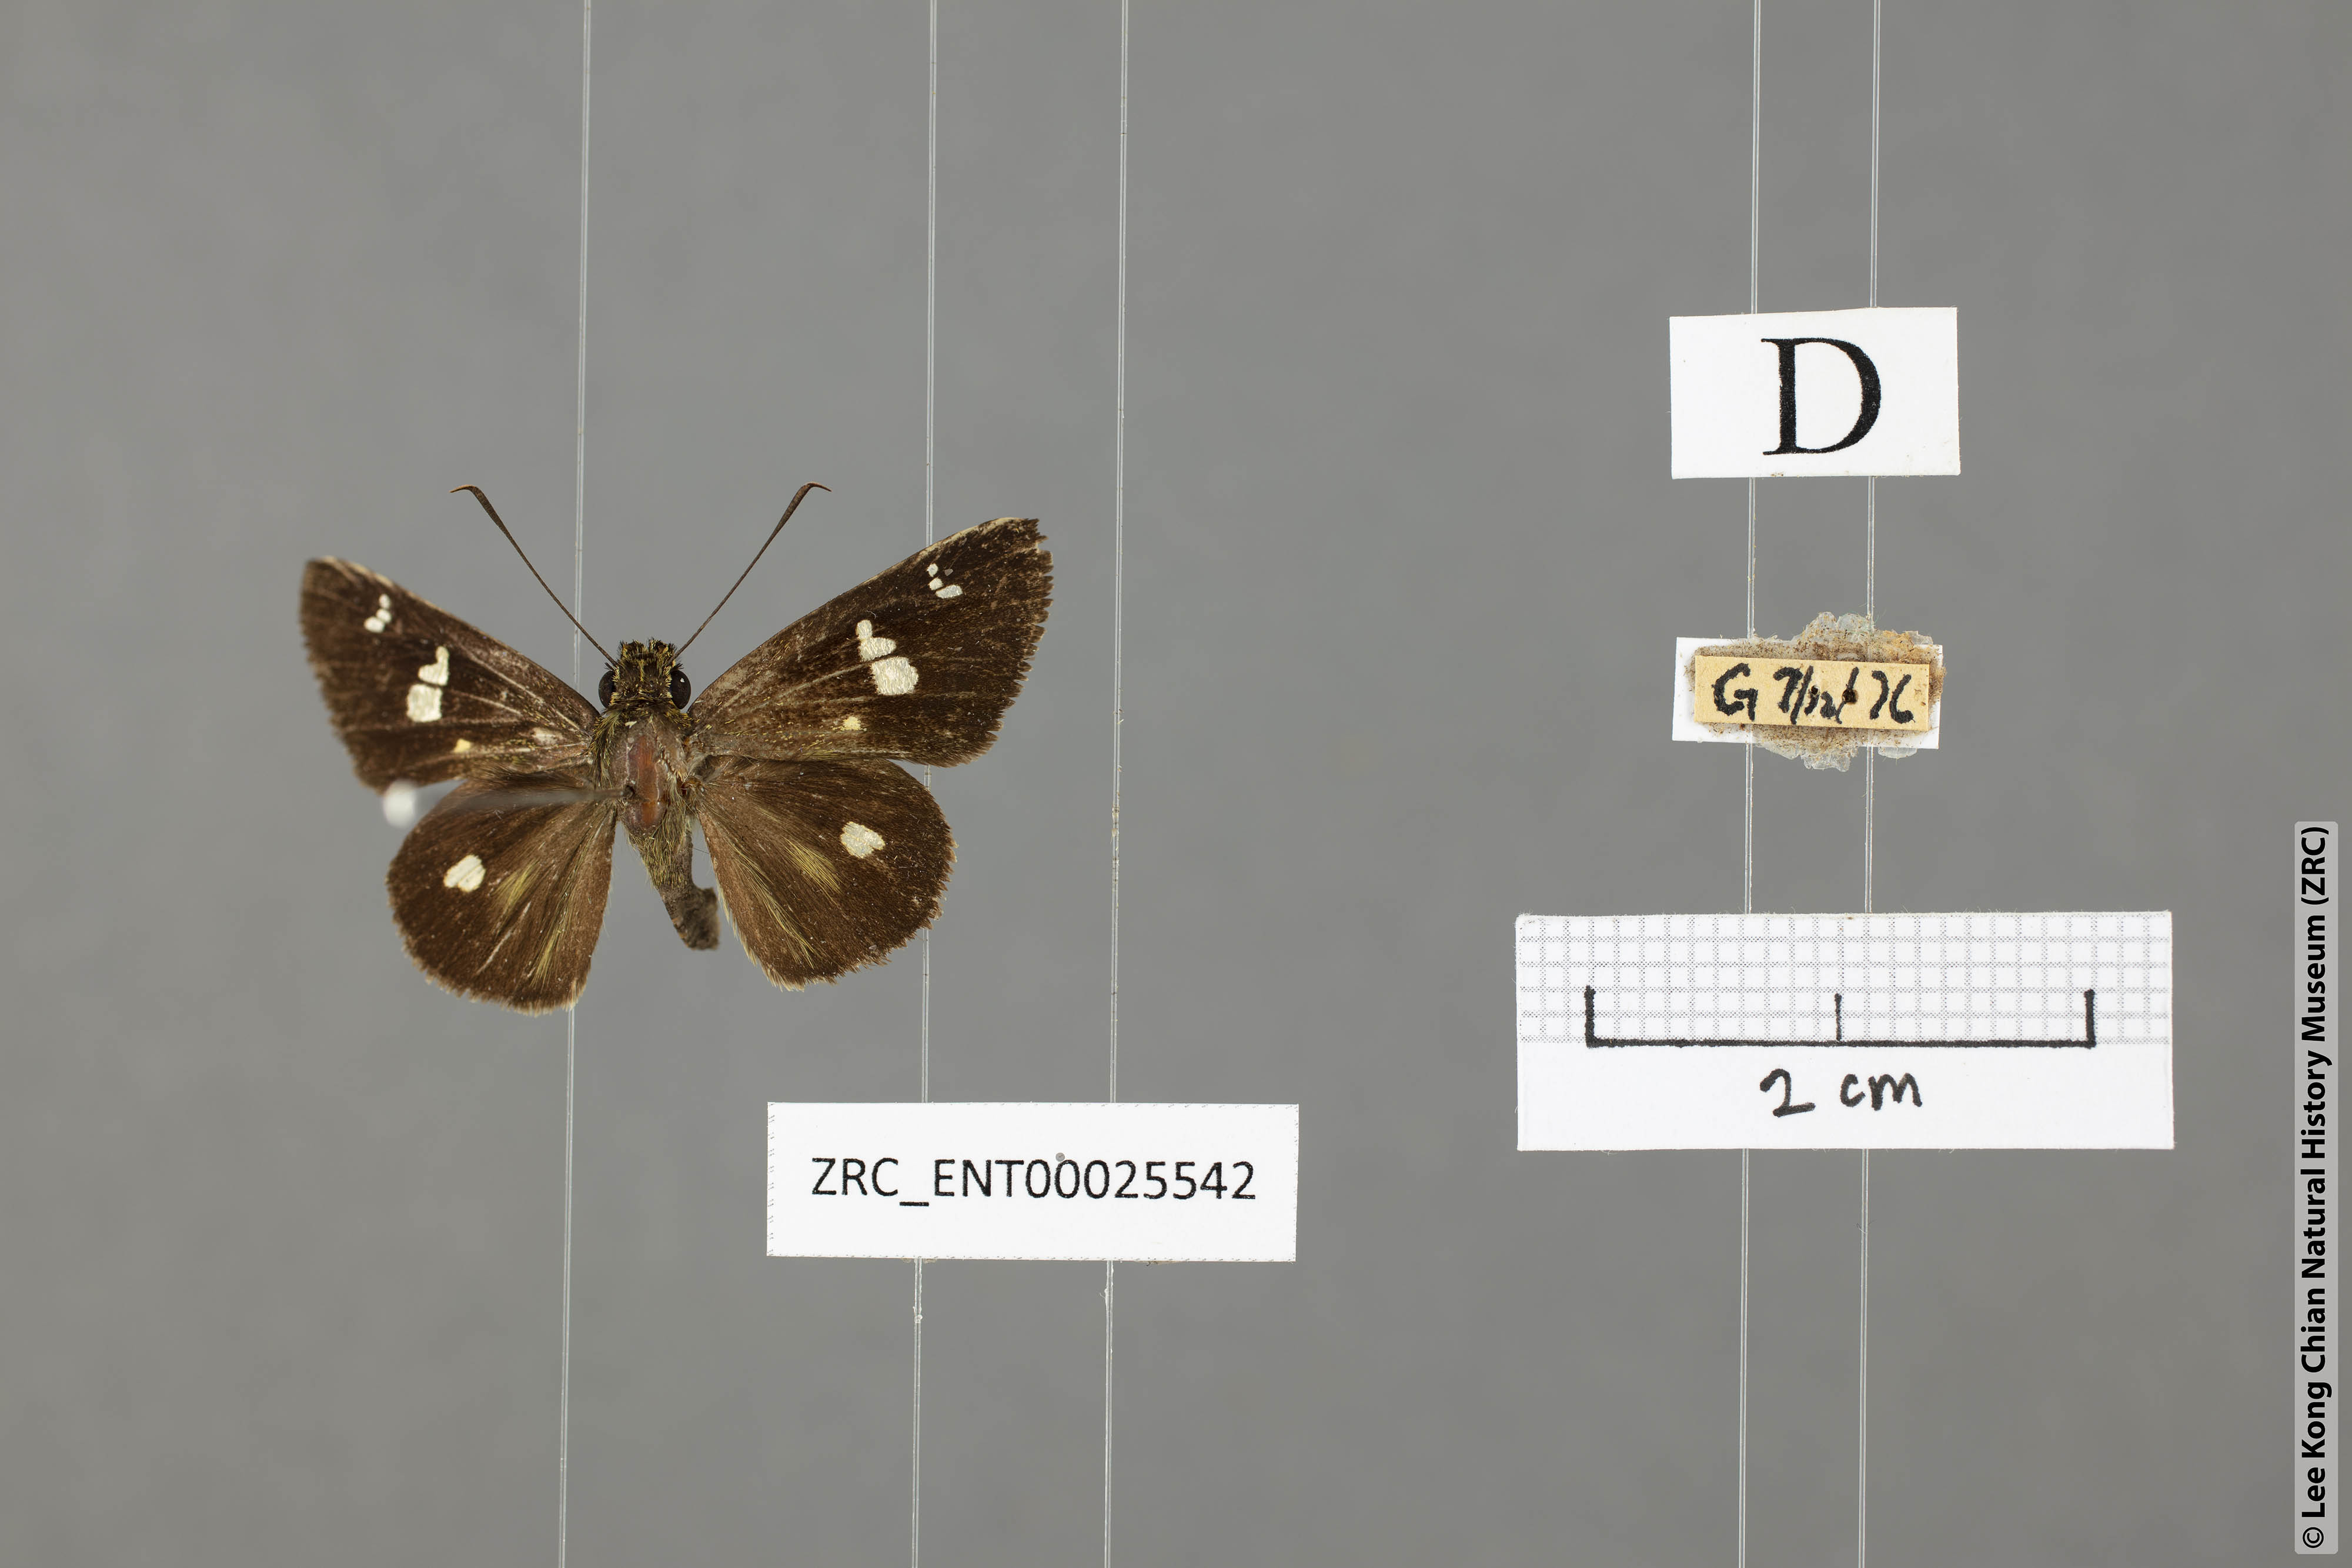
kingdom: Animalia
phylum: Arthropoda
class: Insecta
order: Lepidoptera
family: Hesperiidae
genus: Scobura
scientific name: Scobura phiditia
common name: Malay forest bob
